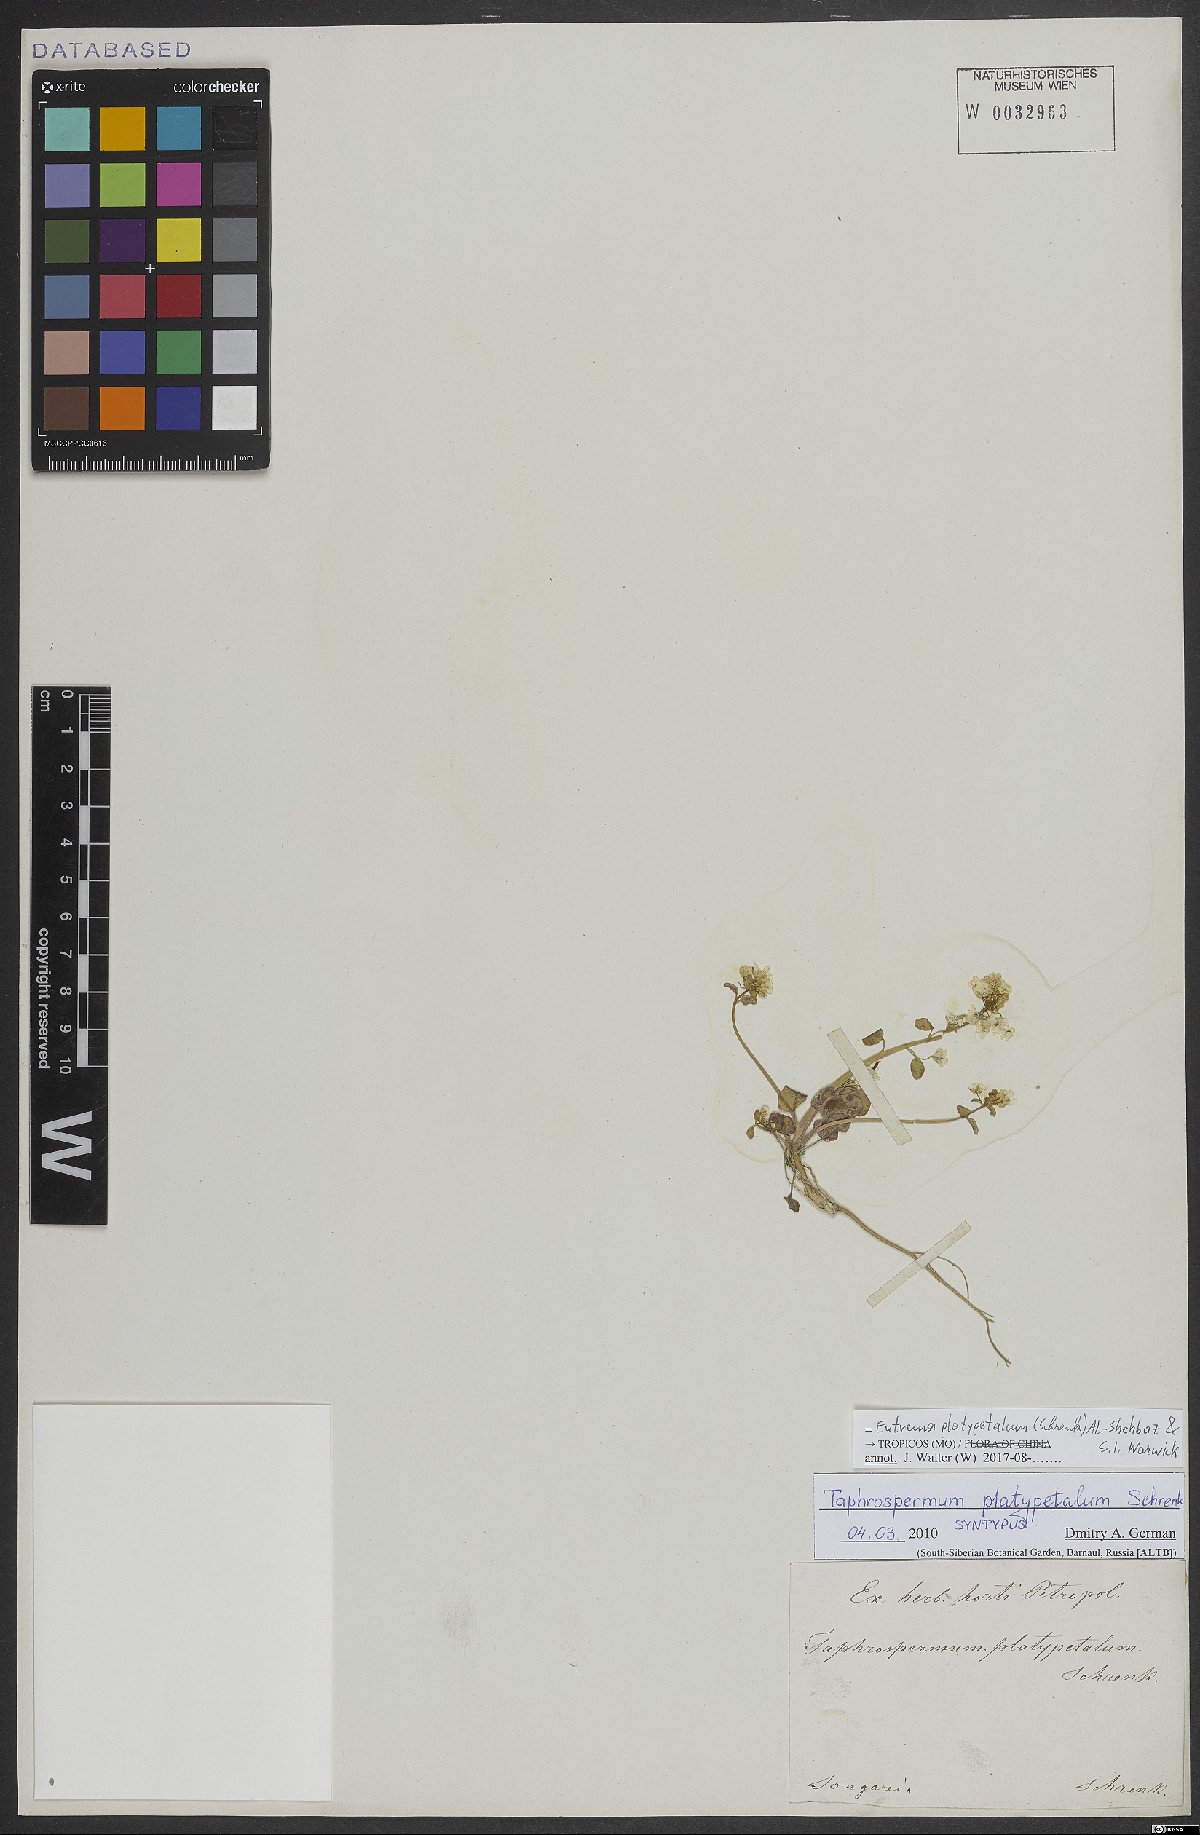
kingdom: Plantae
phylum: Tracheophyta
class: Magnoliopsida
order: Brassicales
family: Brassicaceae
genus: Eutrema
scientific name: Eutrema platypetalum
